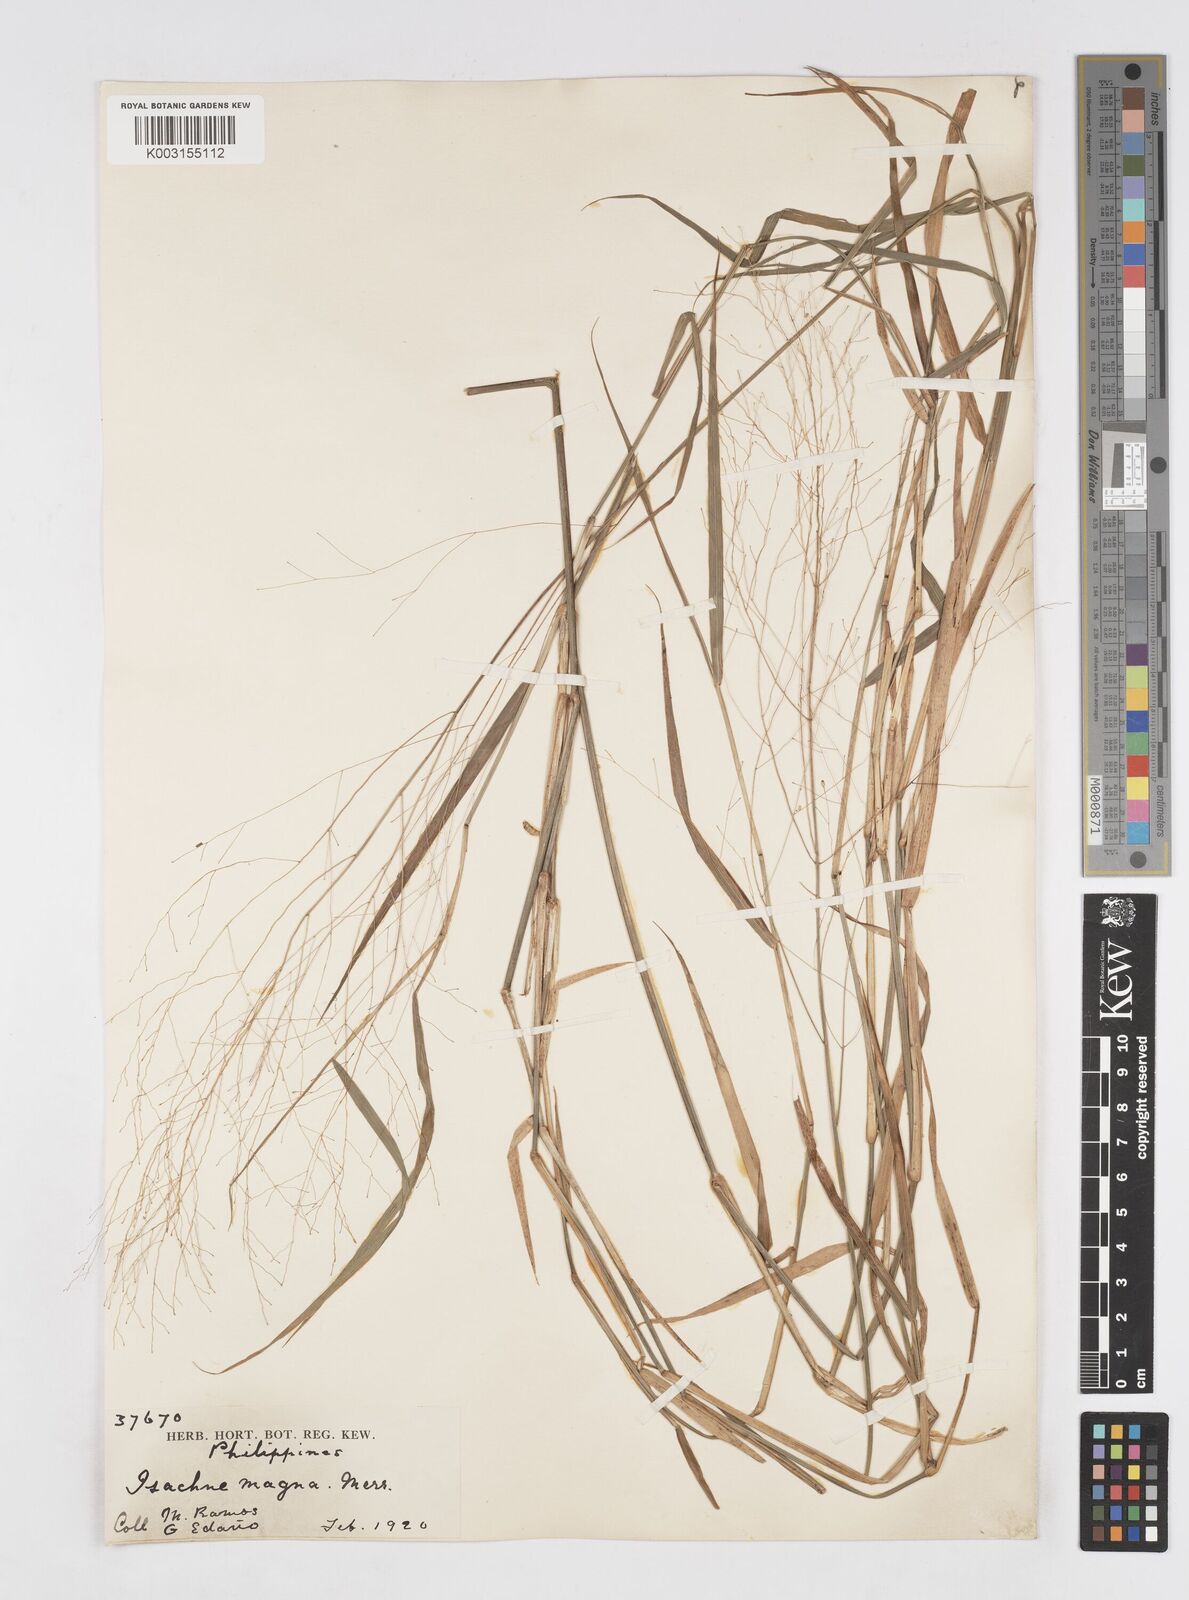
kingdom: Plantae
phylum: Tracheophyta
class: Liliopsida
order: Poales
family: Poaceae
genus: Isachne
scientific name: Isachne albens
